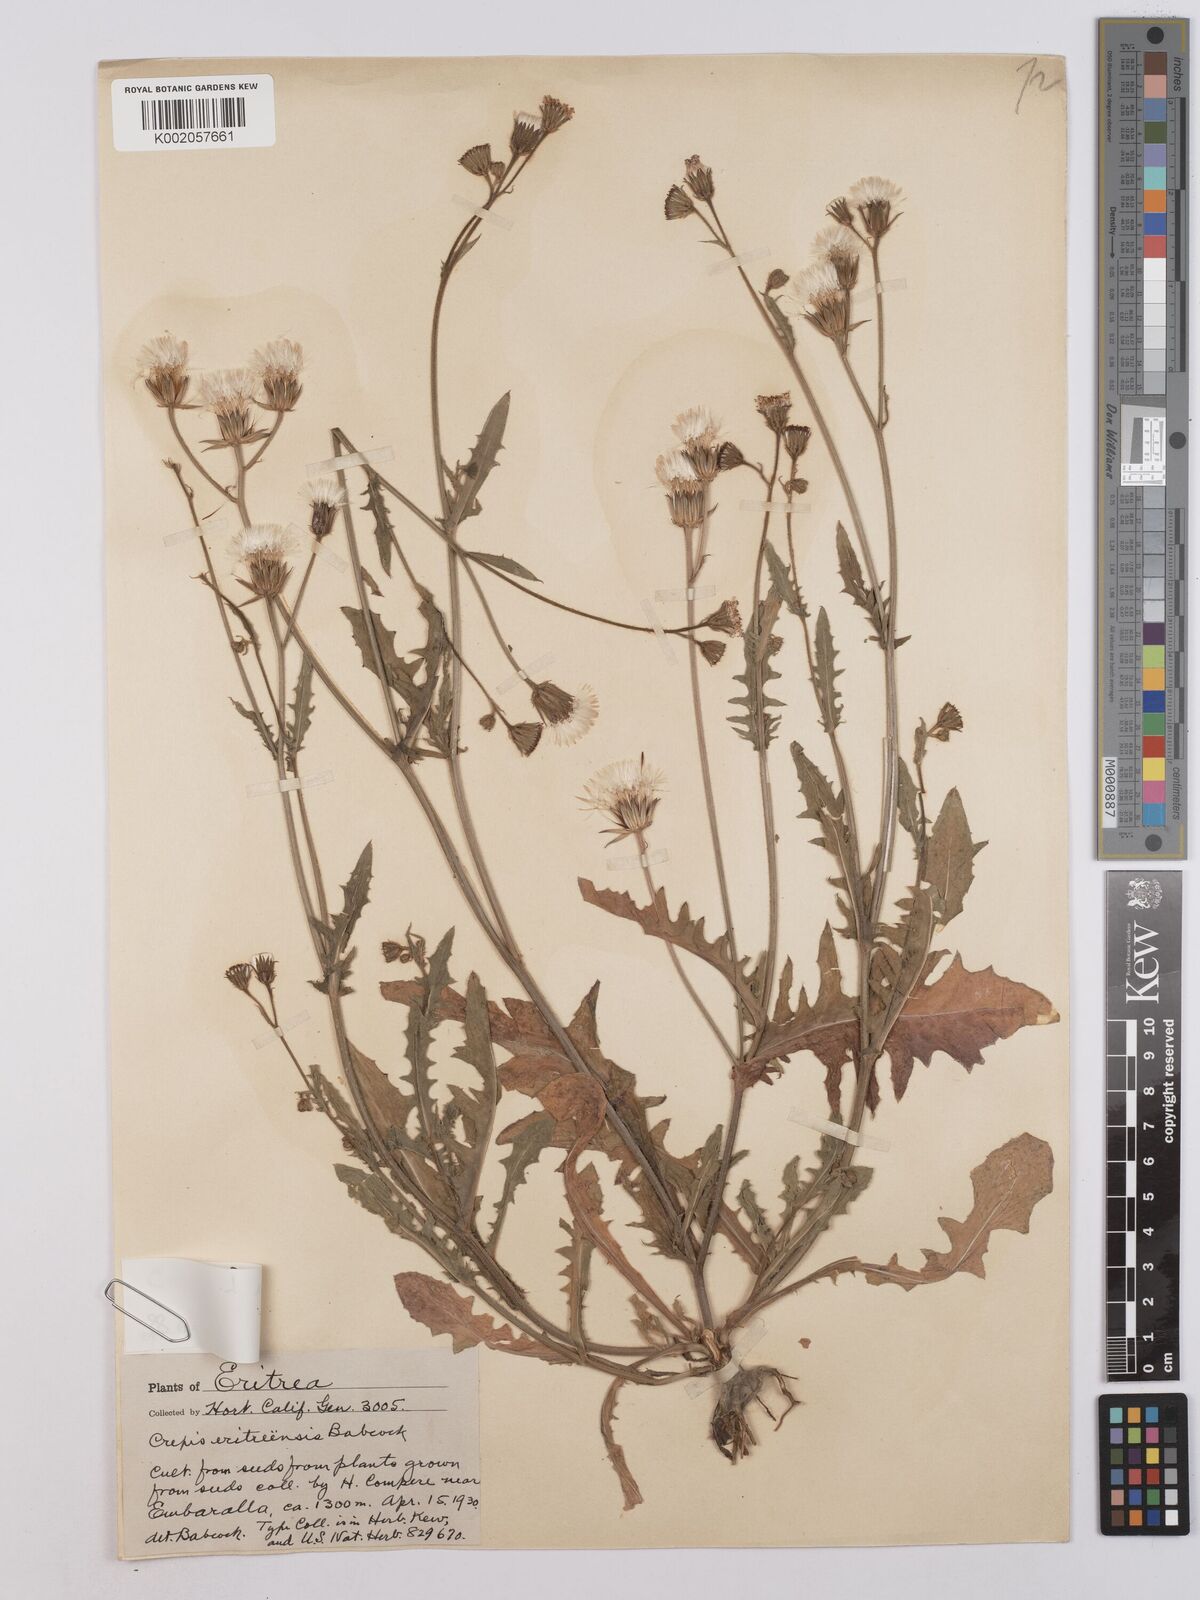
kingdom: Plantae
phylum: Tracheophyta
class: Magnoliopsida
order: Asterales
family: Asteraceae
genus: Crepis
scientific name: Crepis foetida
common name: Stinking hawk's-beard
